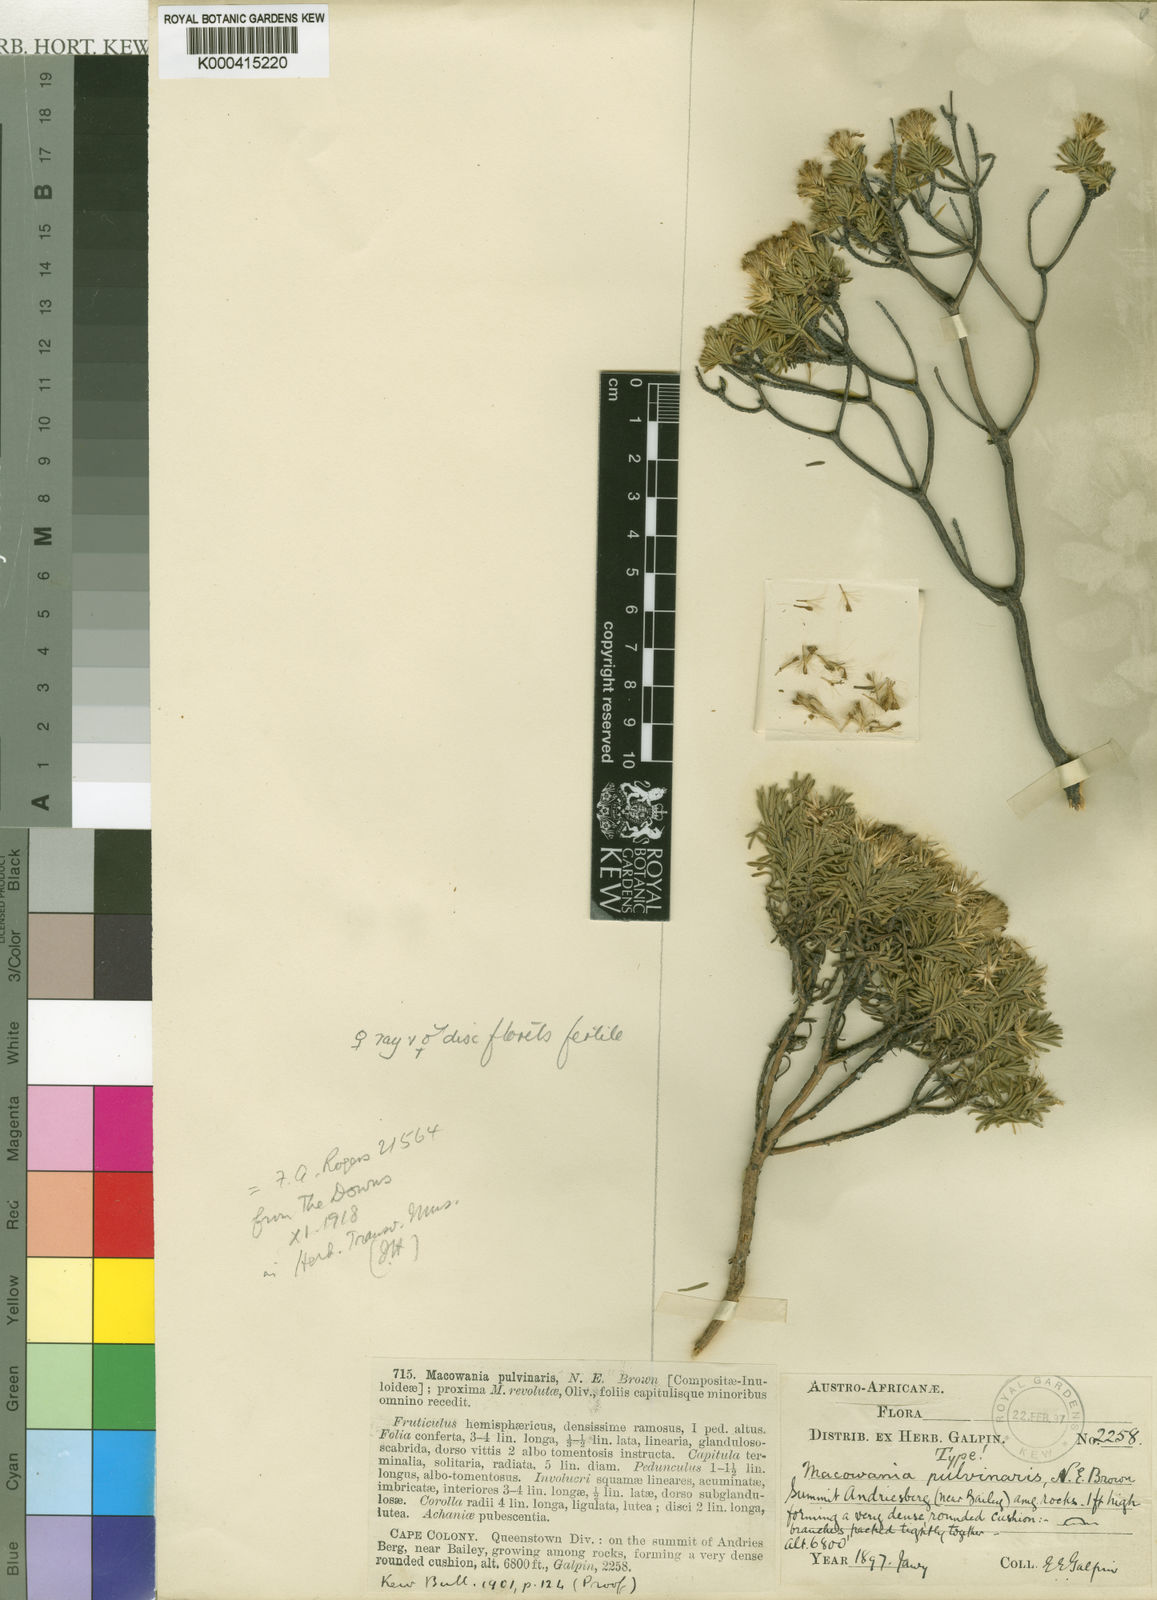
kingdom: Plantae
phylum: Tracheophyta
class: Magnoliopsida
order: Asterales
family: Asteraceae
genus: Arrowsmithia
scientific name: Arrowsmithia pulvinaris
